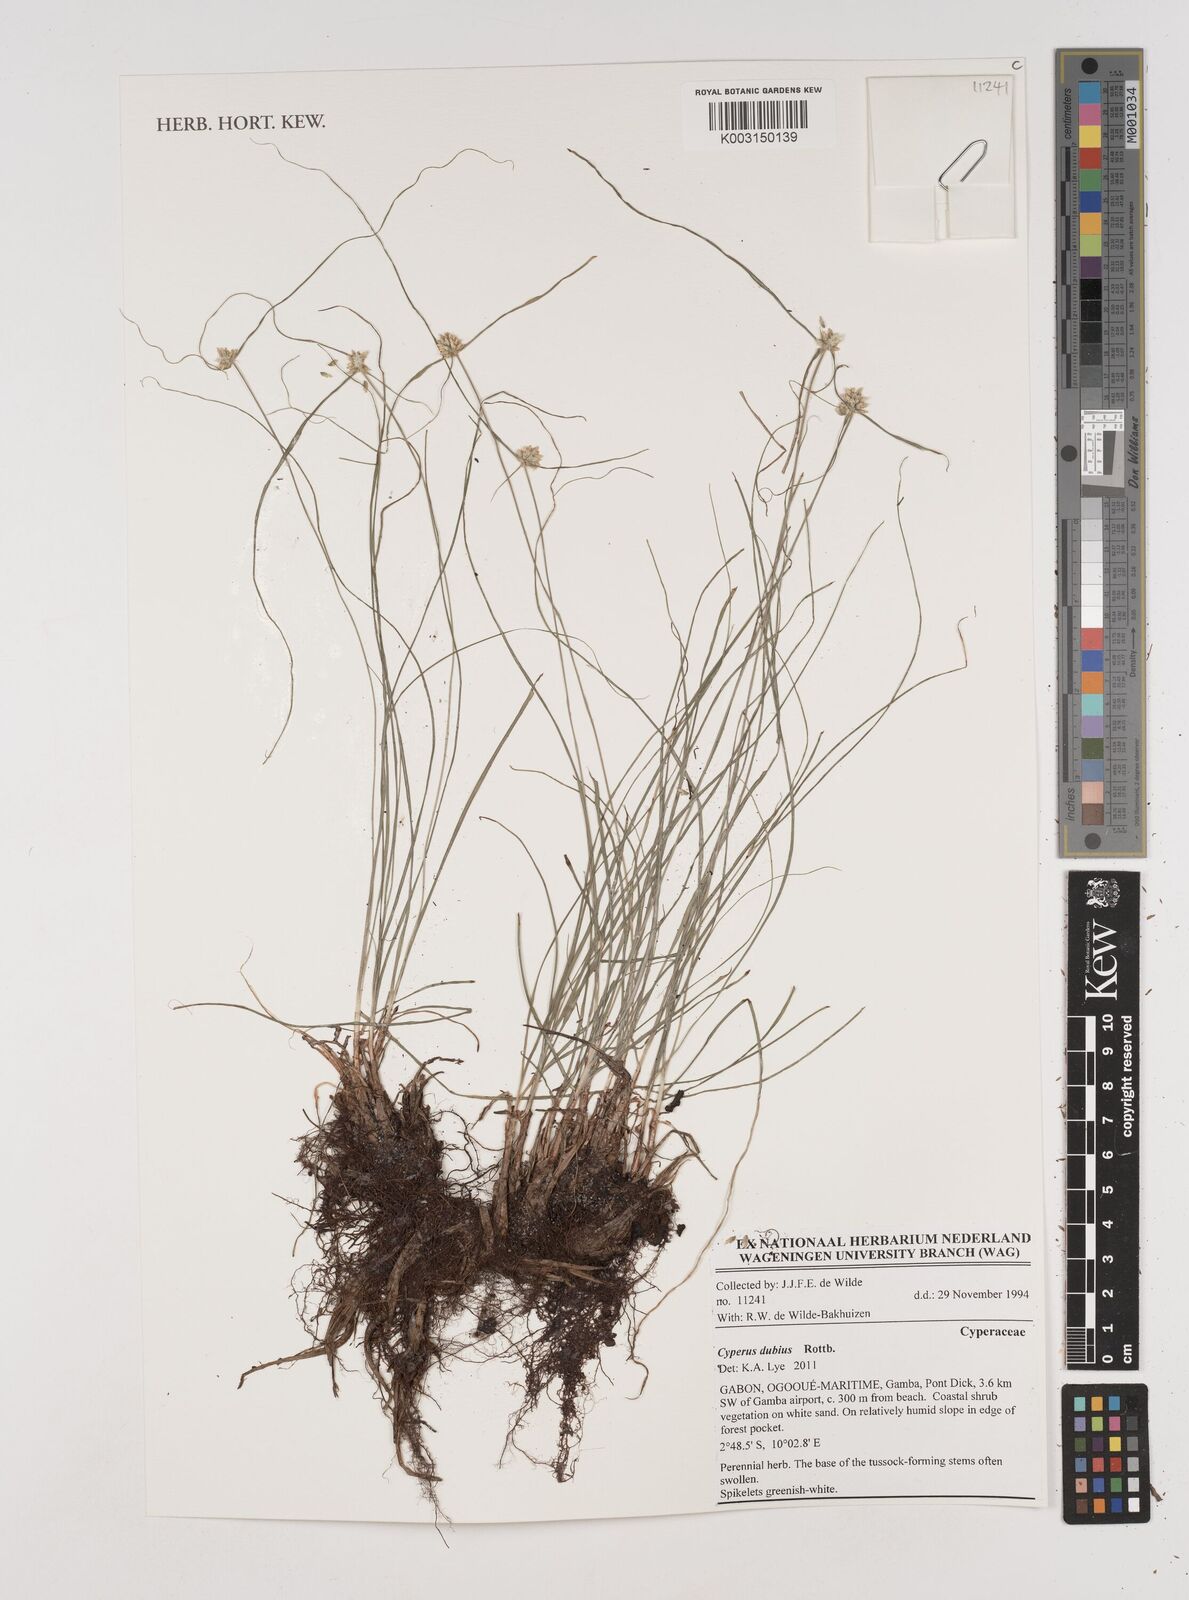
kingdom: Plantae
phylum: Tracheophyta
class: Liliopsida
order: Poales
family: Cyperaceae
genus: Cyperus
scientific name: Cyperus dubius
